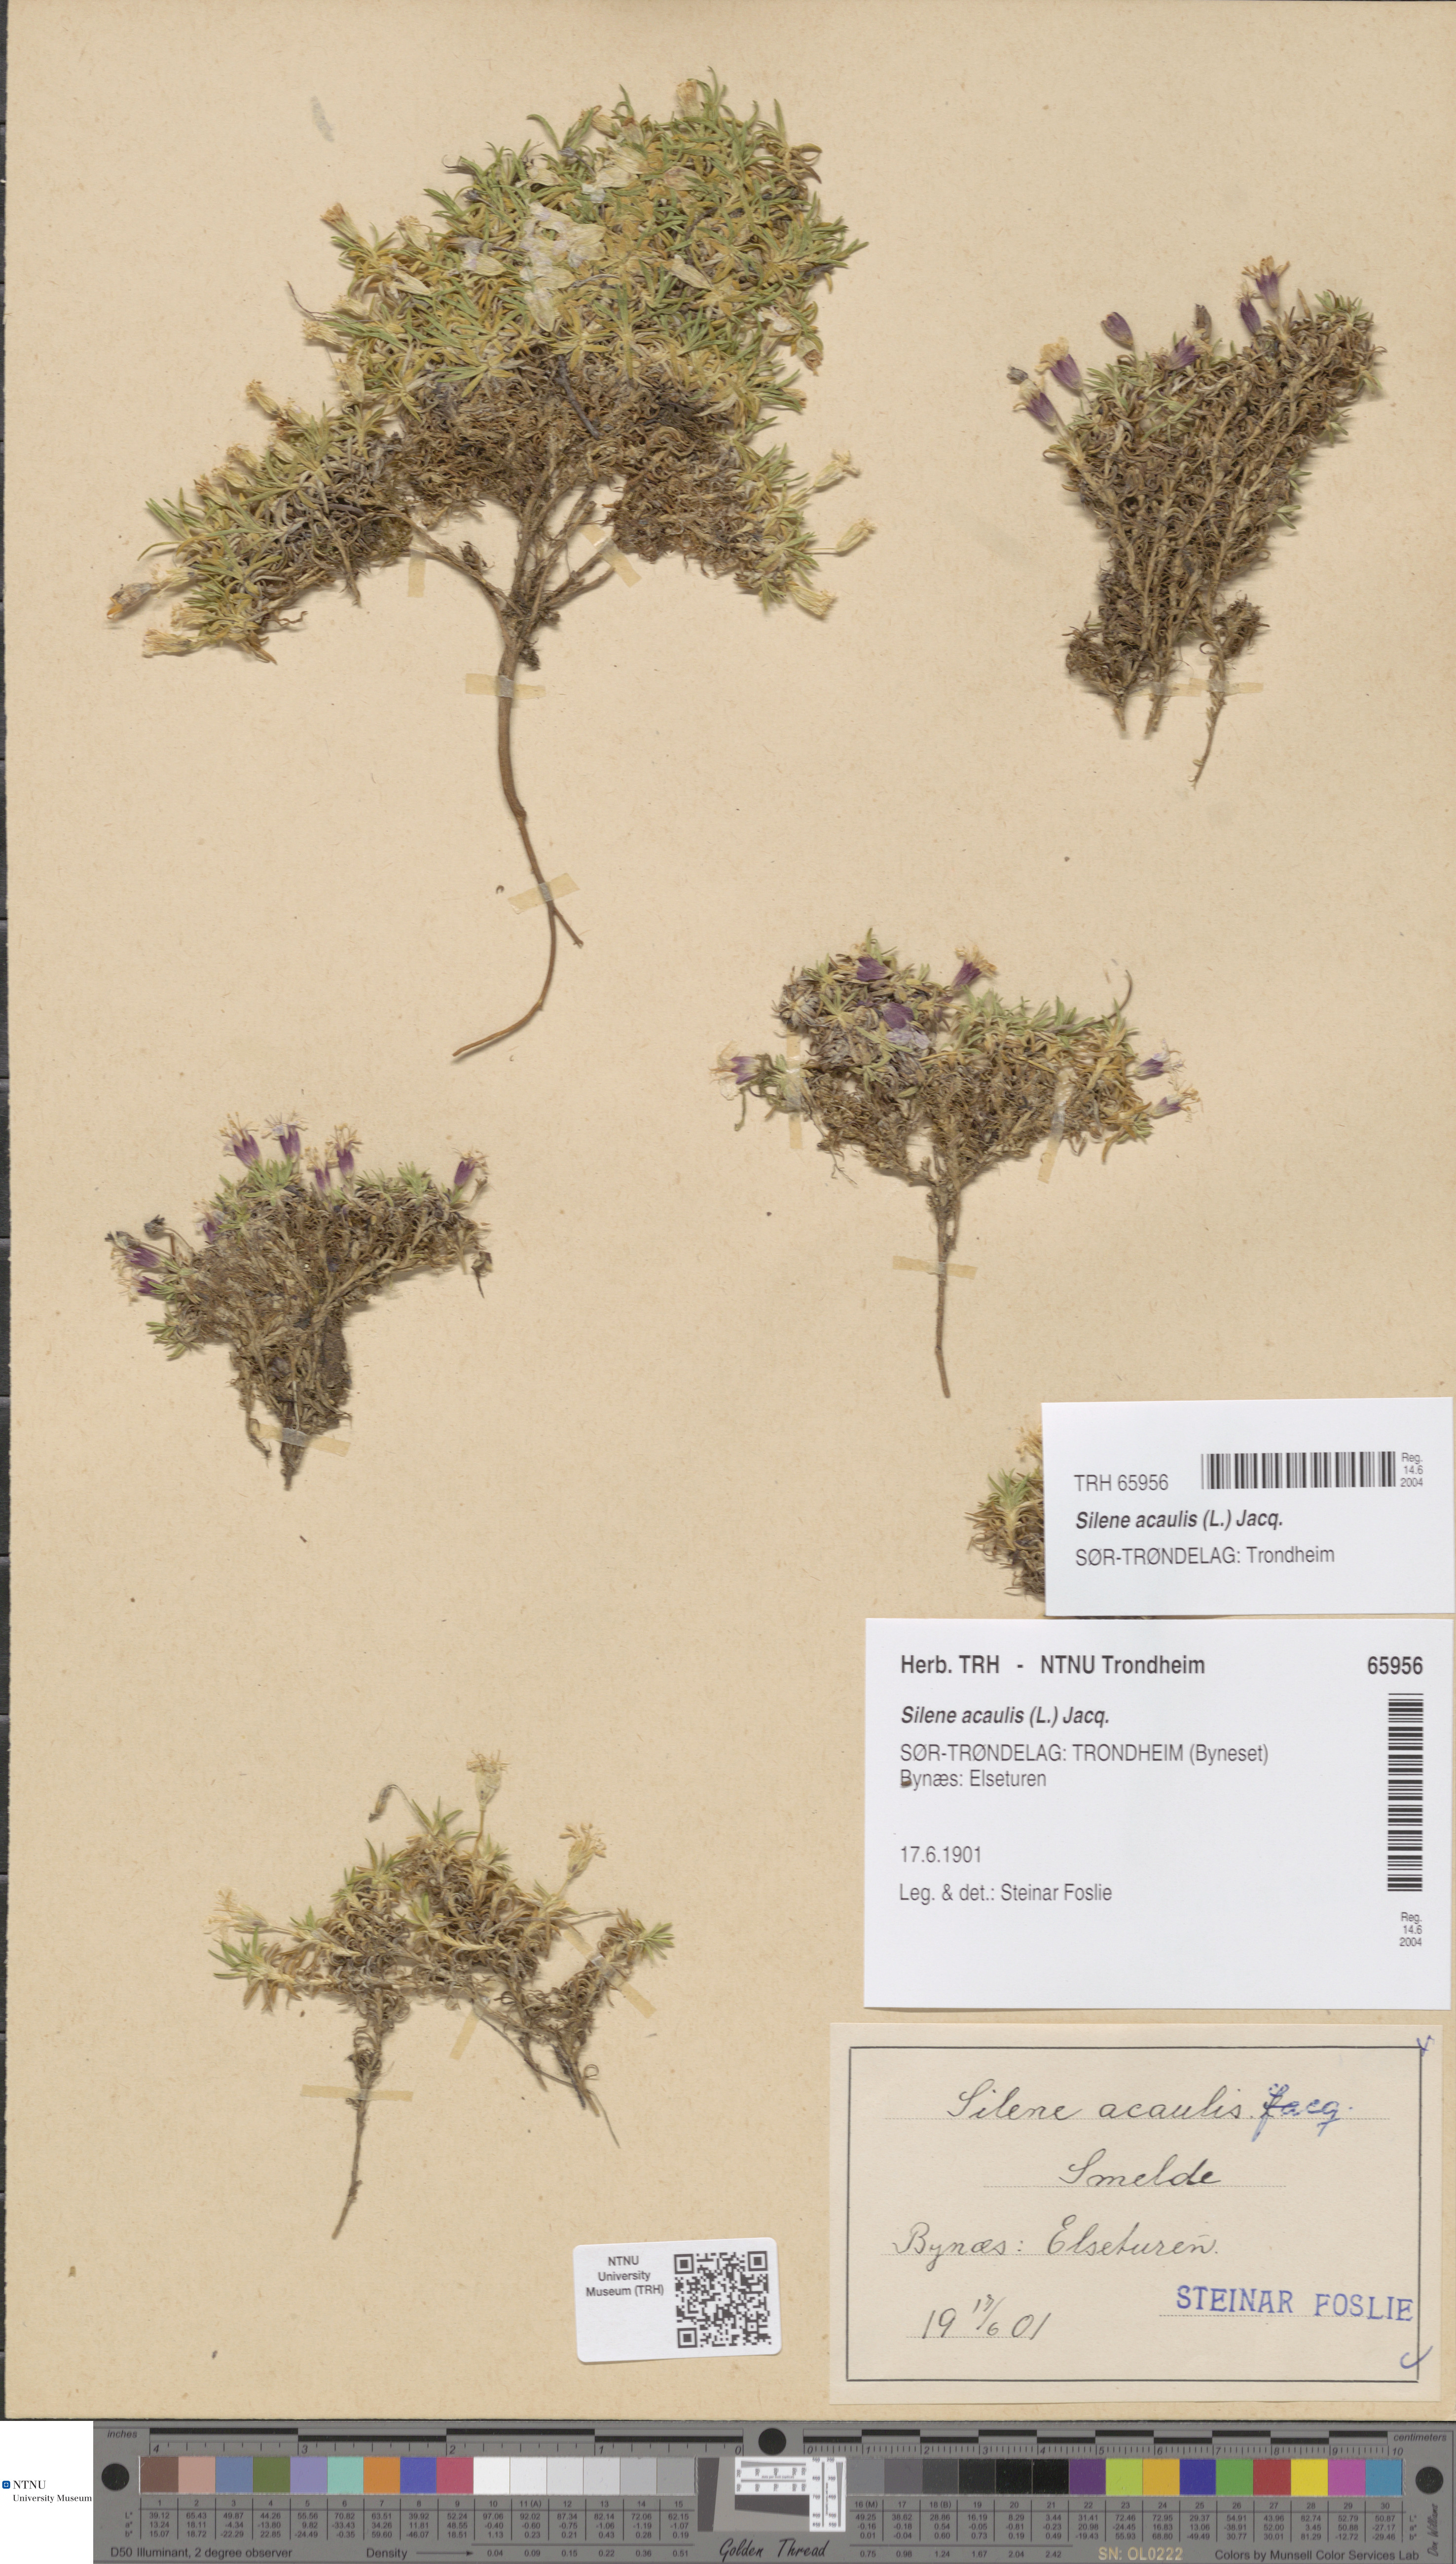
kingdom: Plantae
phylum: Tracheophyta
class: Magnoliopsida
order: Caryophyllales
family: Caryophyllaceae
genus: Silene
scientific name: Silene acaulis
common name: Moss campion
